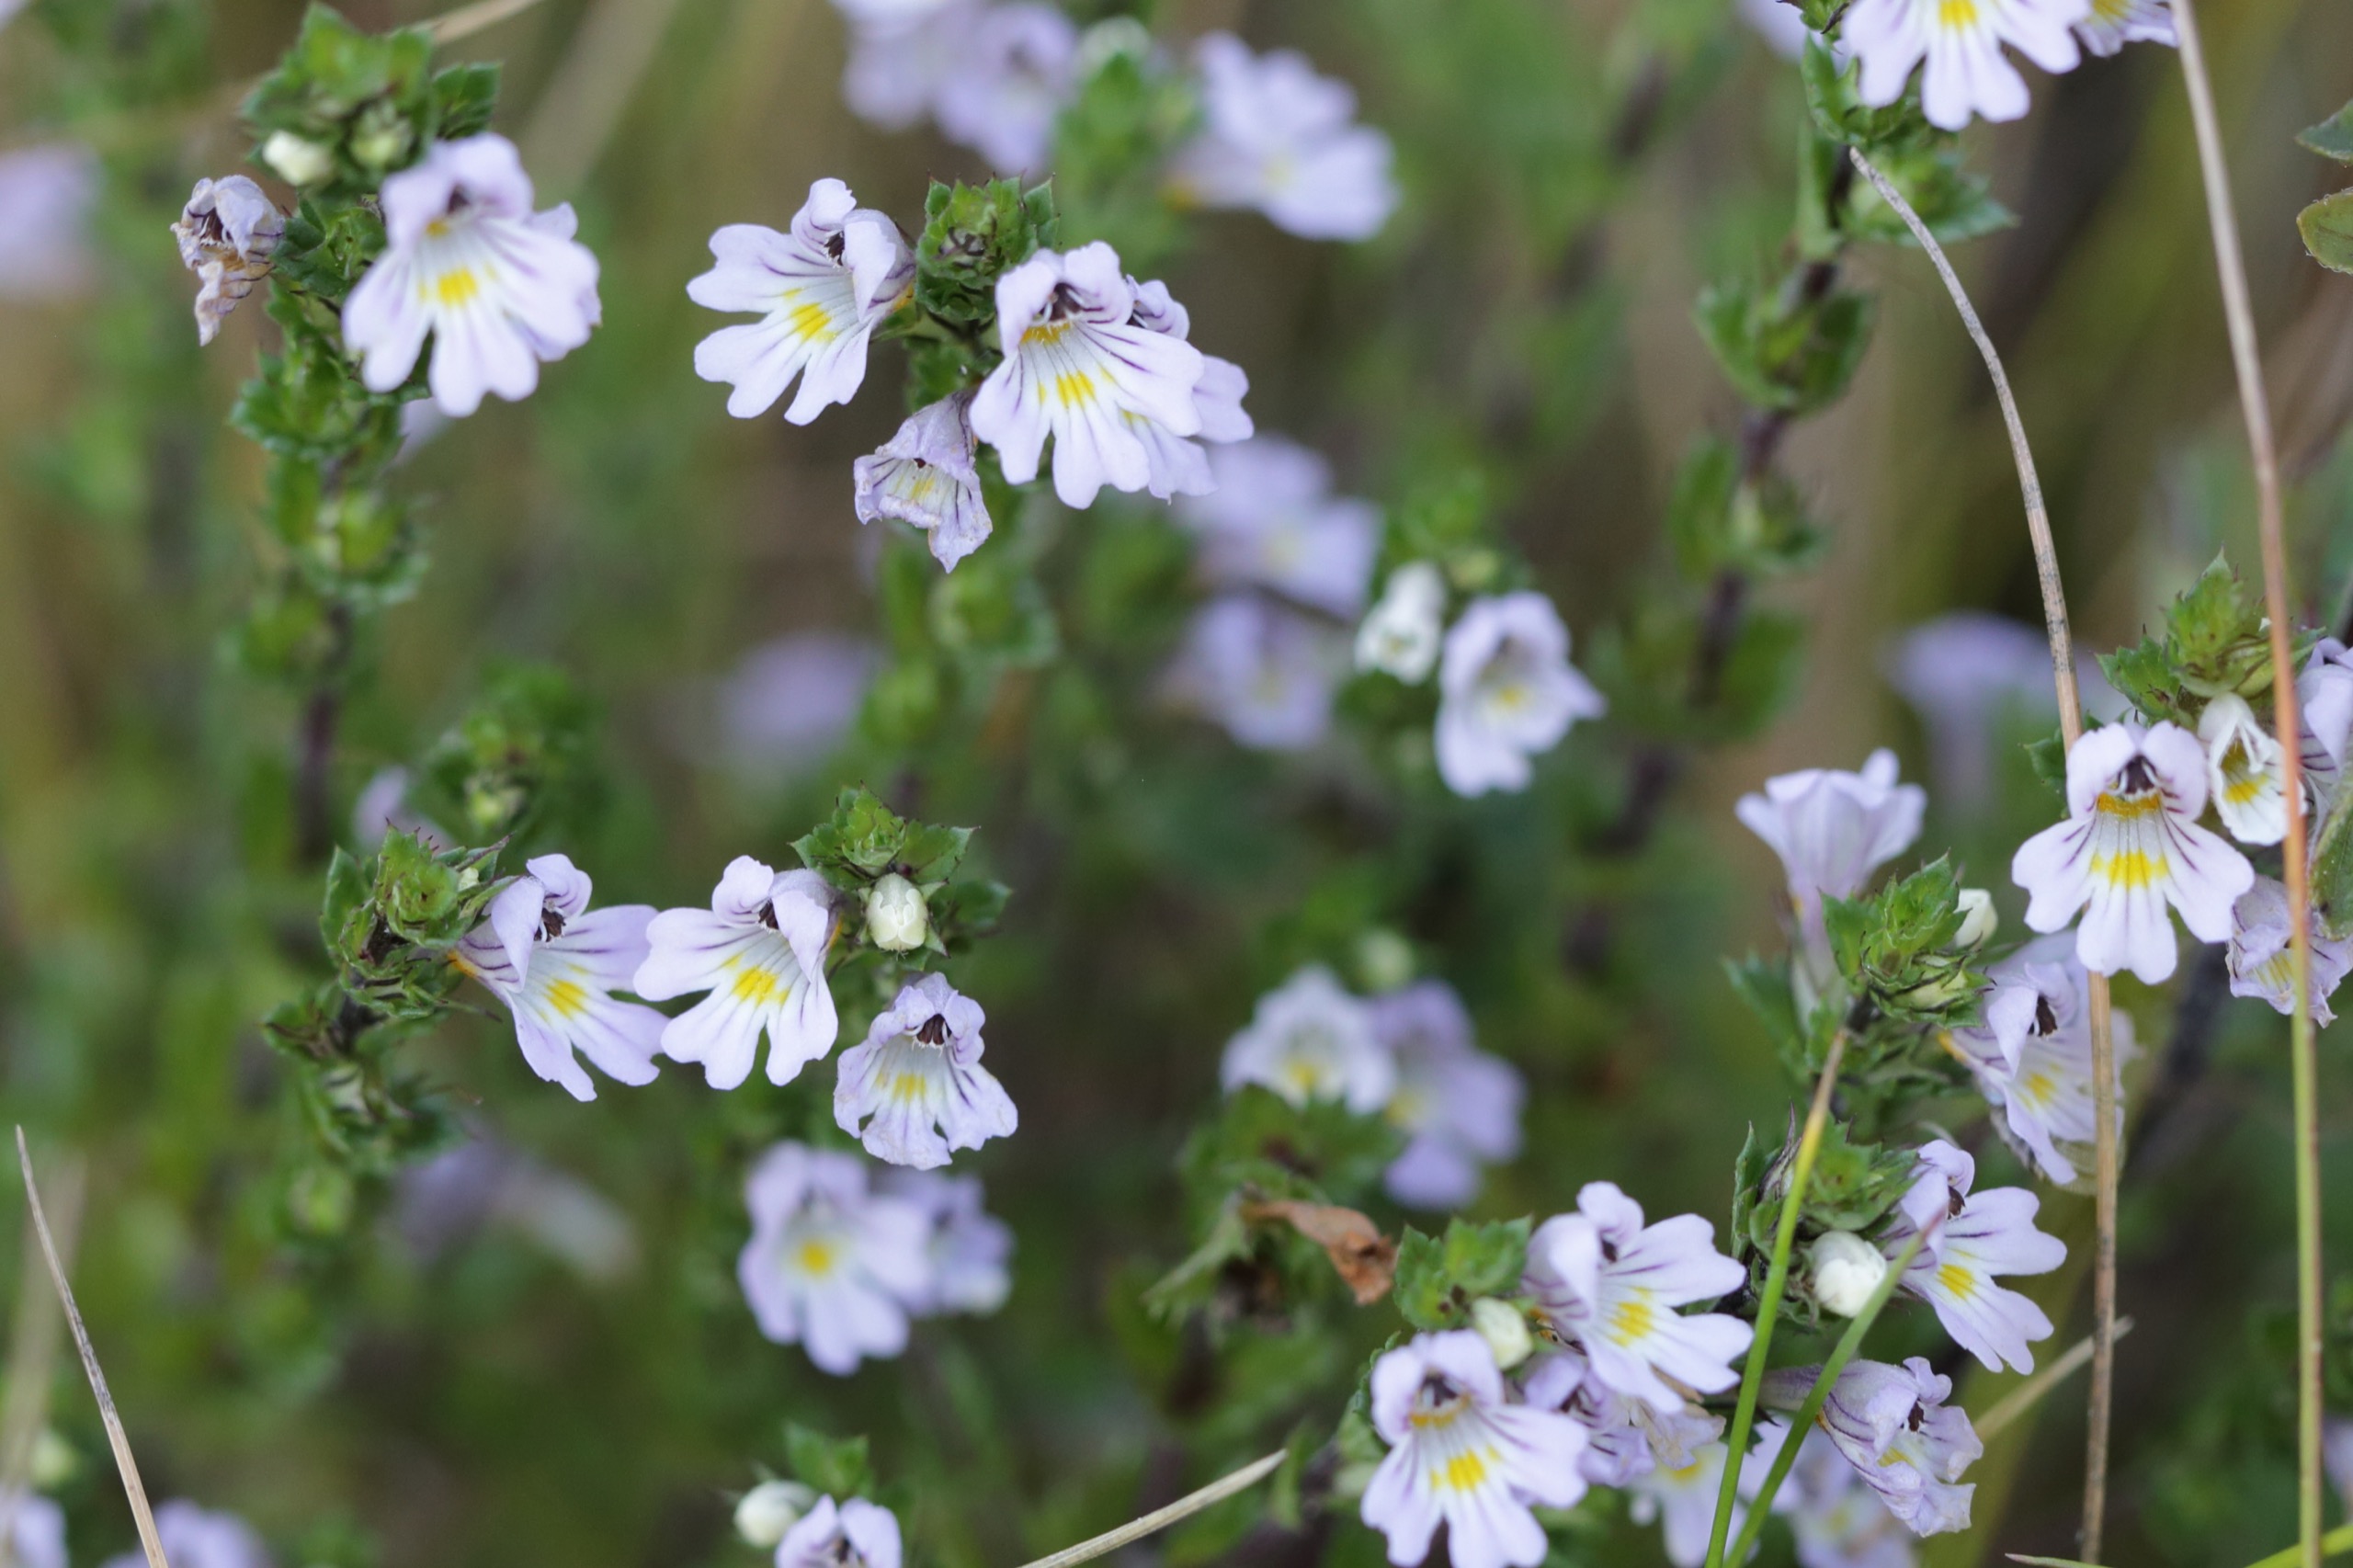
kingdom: Plantae
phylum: Tracheophyta
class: Magnoliopsida
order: Lamiales
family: Orobanchaceae
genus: Euphrasia
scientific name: Euphrasia stricta
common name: Spids øjentrøst
